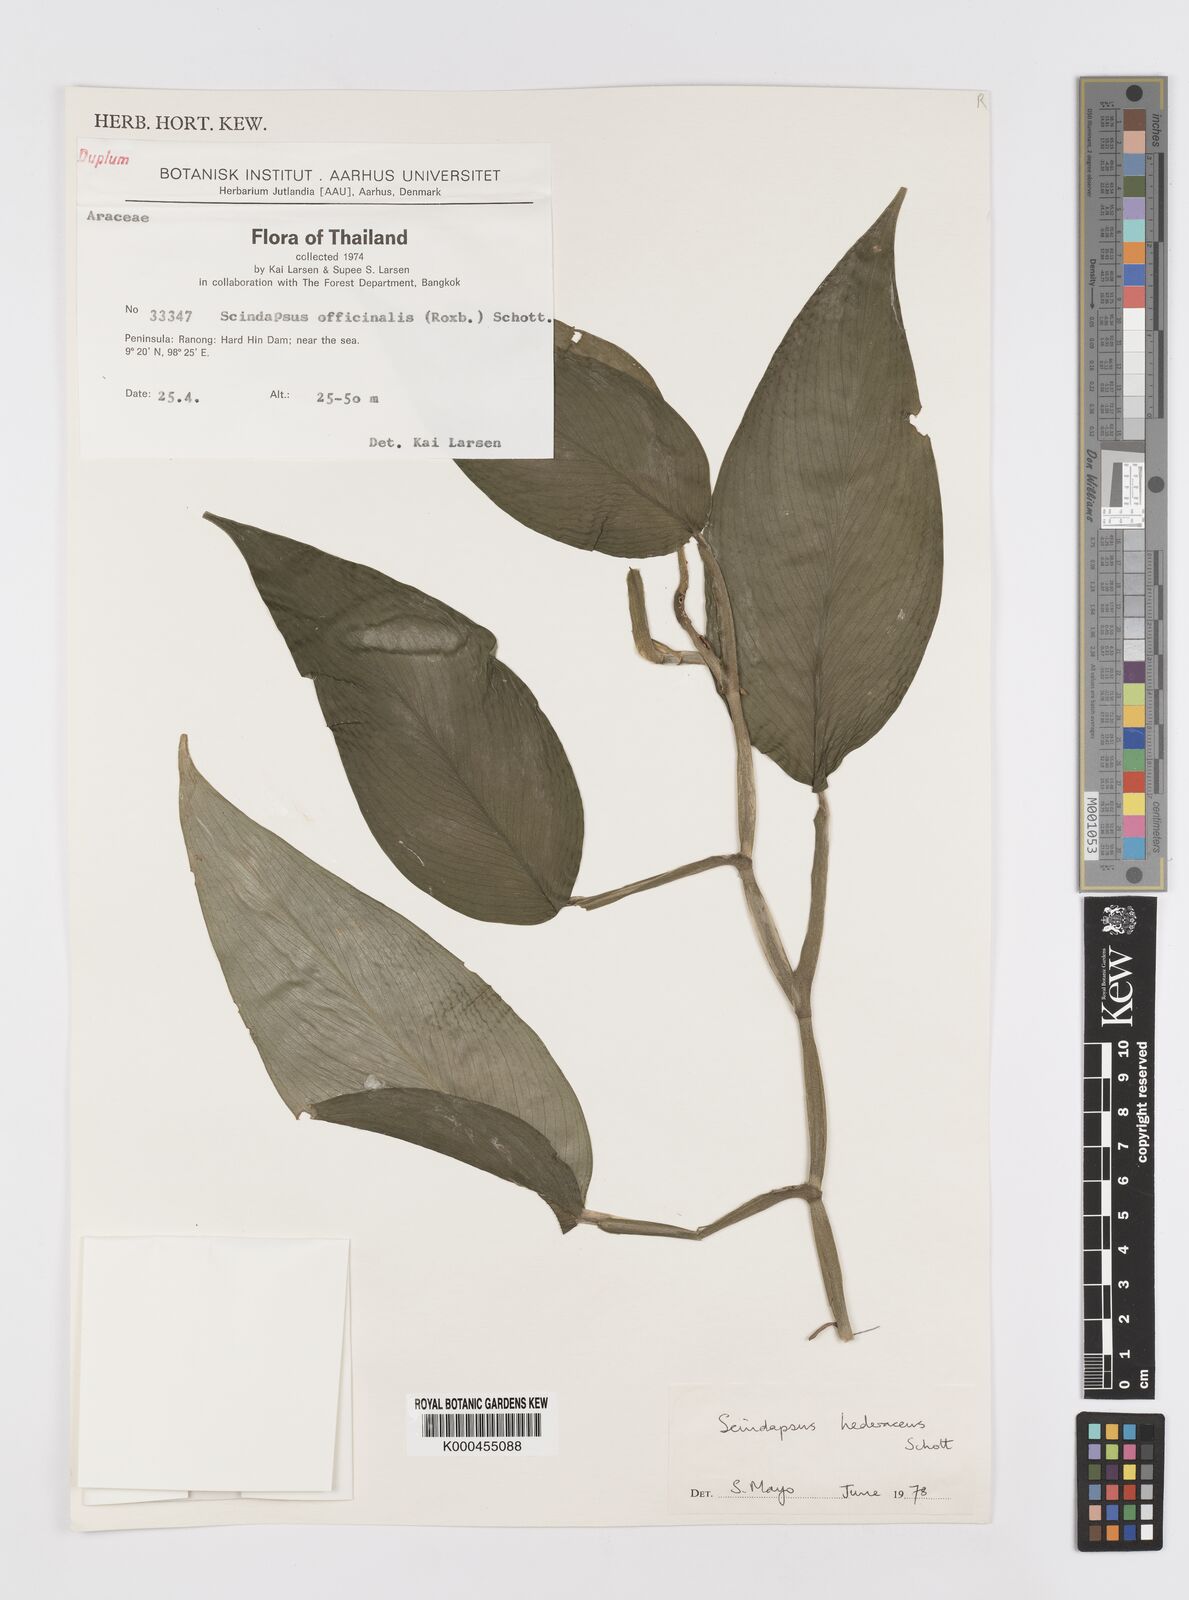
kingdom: Plantae
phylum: Tracheophyta
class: Liliopsida
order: Alismatales
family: Araceae
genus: Scindapsus
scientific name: Scindapsus hederaceus
